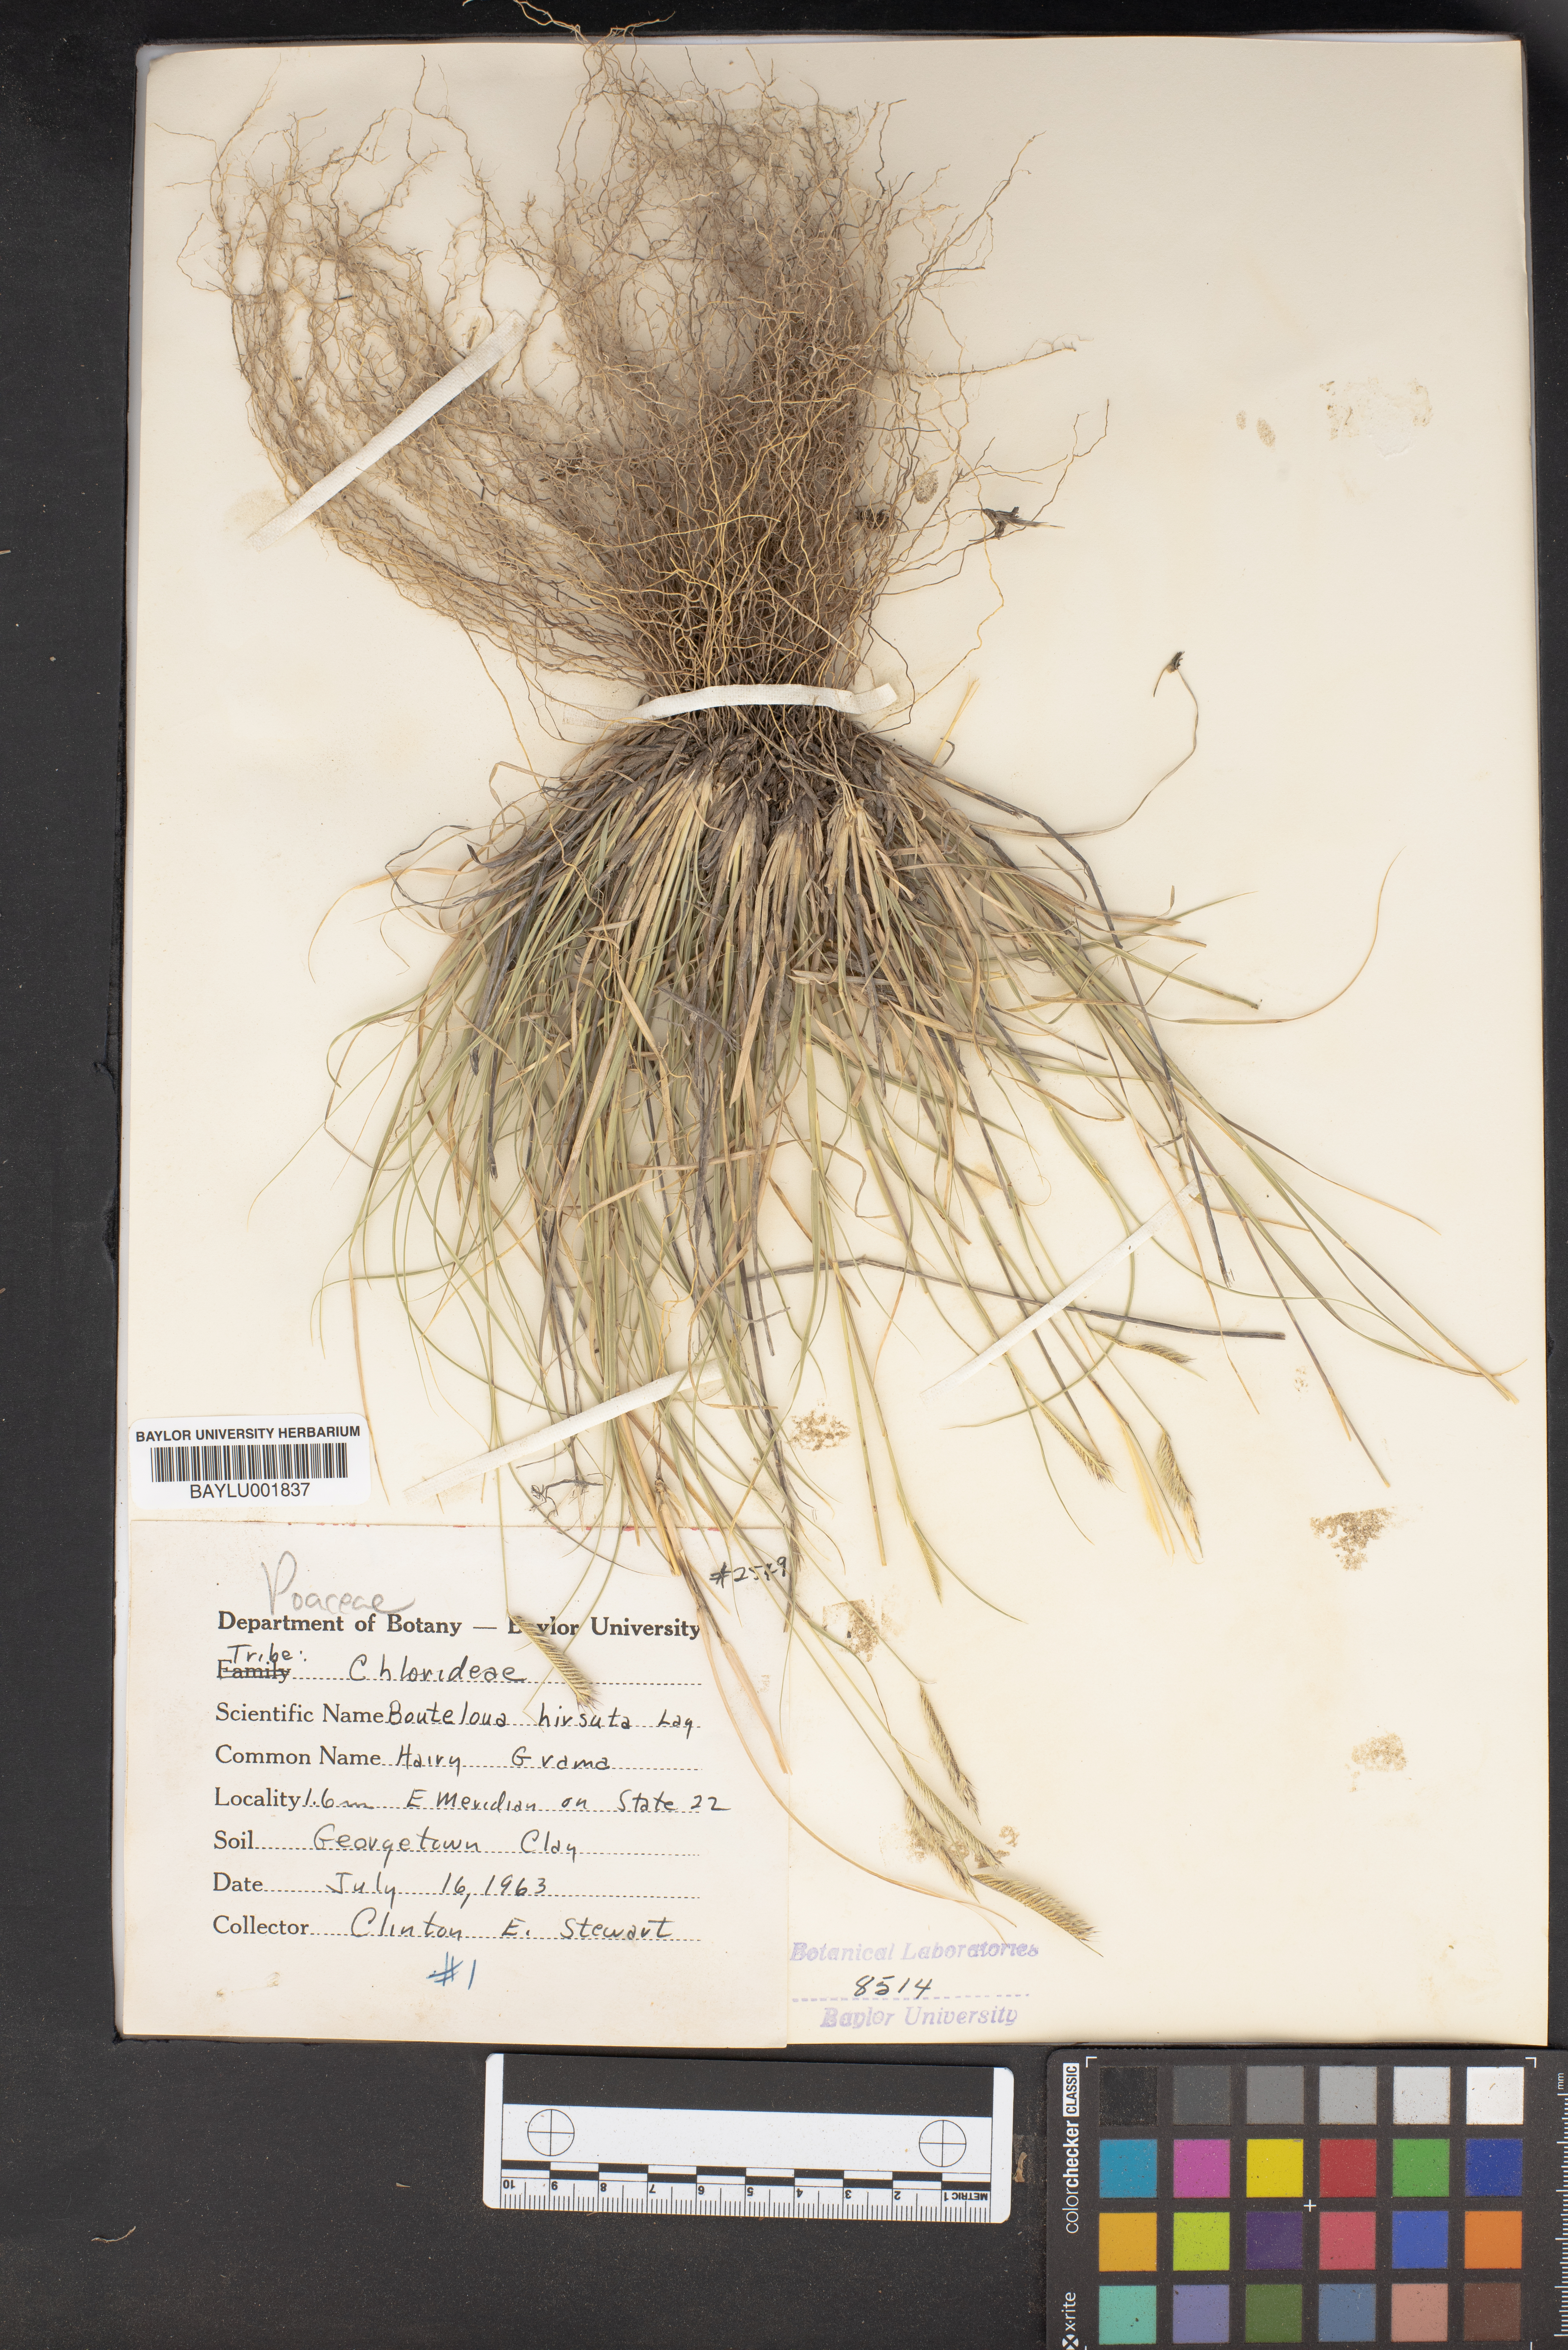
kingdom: Plantae
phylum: Tracheophyta
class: Liliopsida
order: Poales
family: Poaceae
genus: Bouteloua
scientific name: Bouteloua hirsuta
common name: Hairy grama
